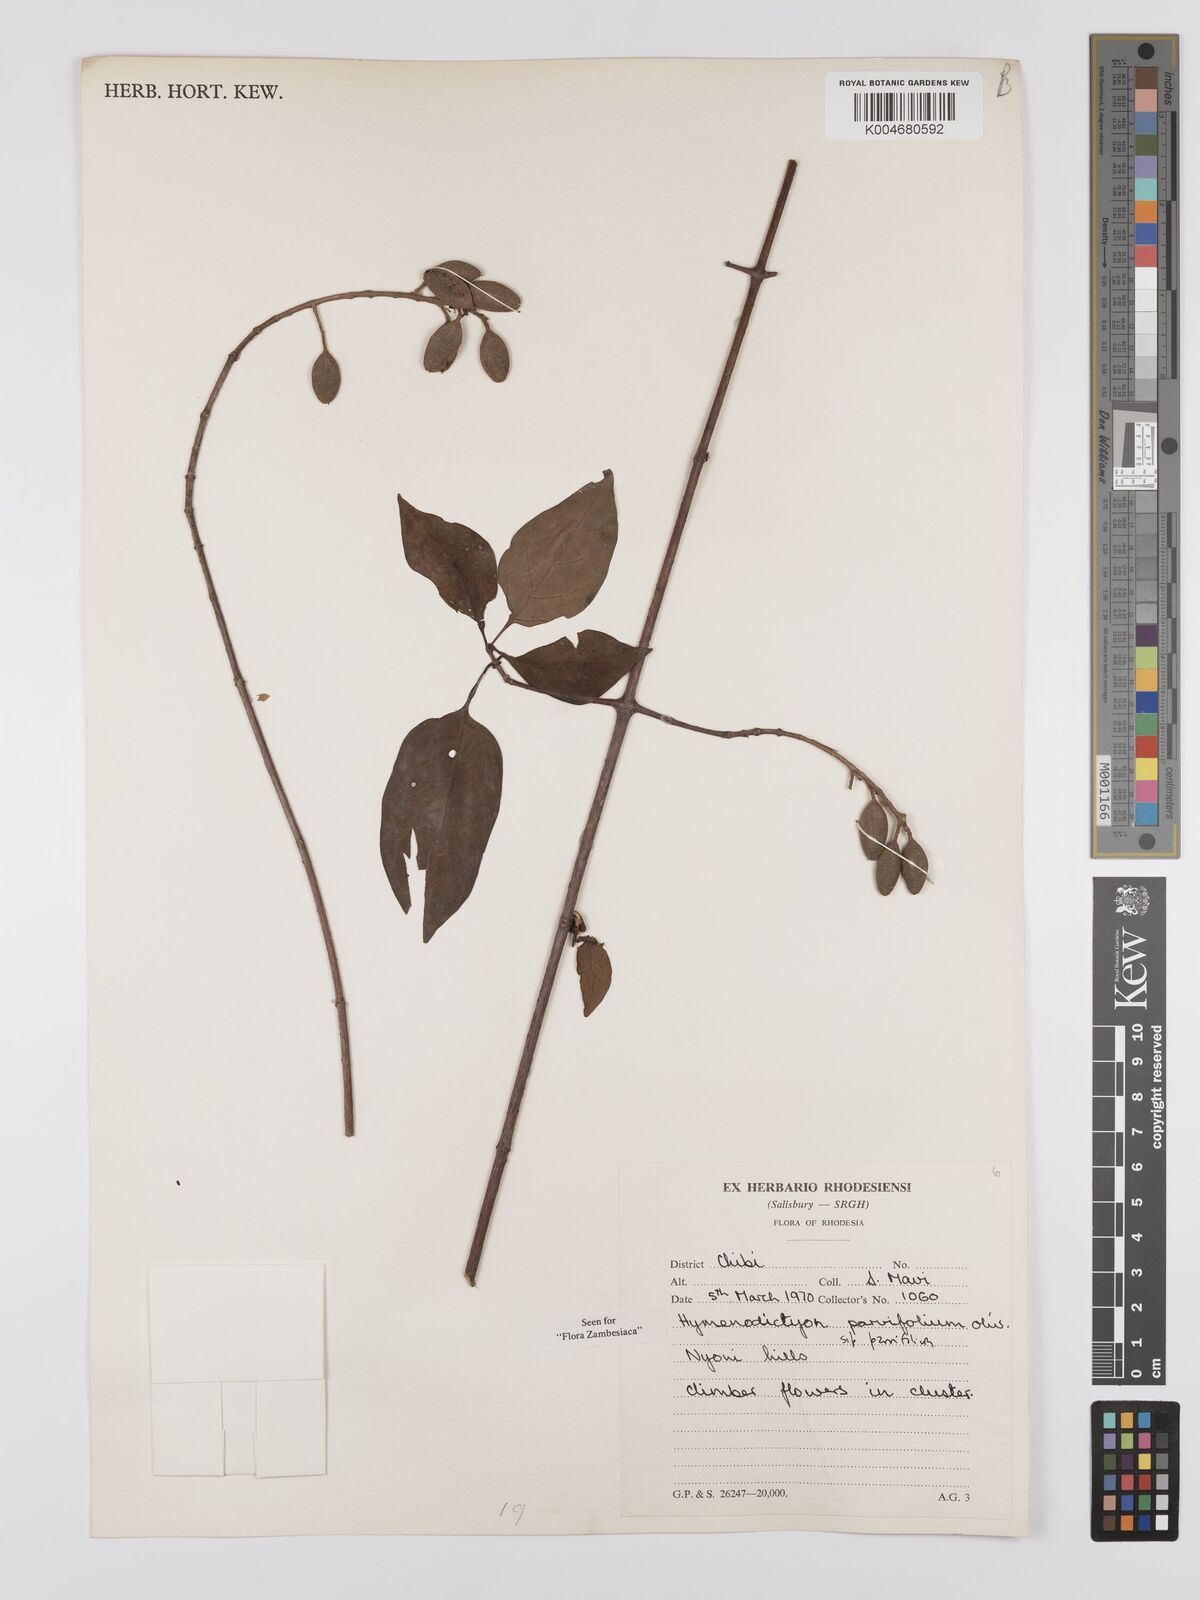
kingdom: Plantae
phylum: Tracheophyta
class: Magnoliopsida
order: Gentianales
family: Rubiaceae
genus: Hymenodictyon
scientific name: Hymenodictyon parvifolium
